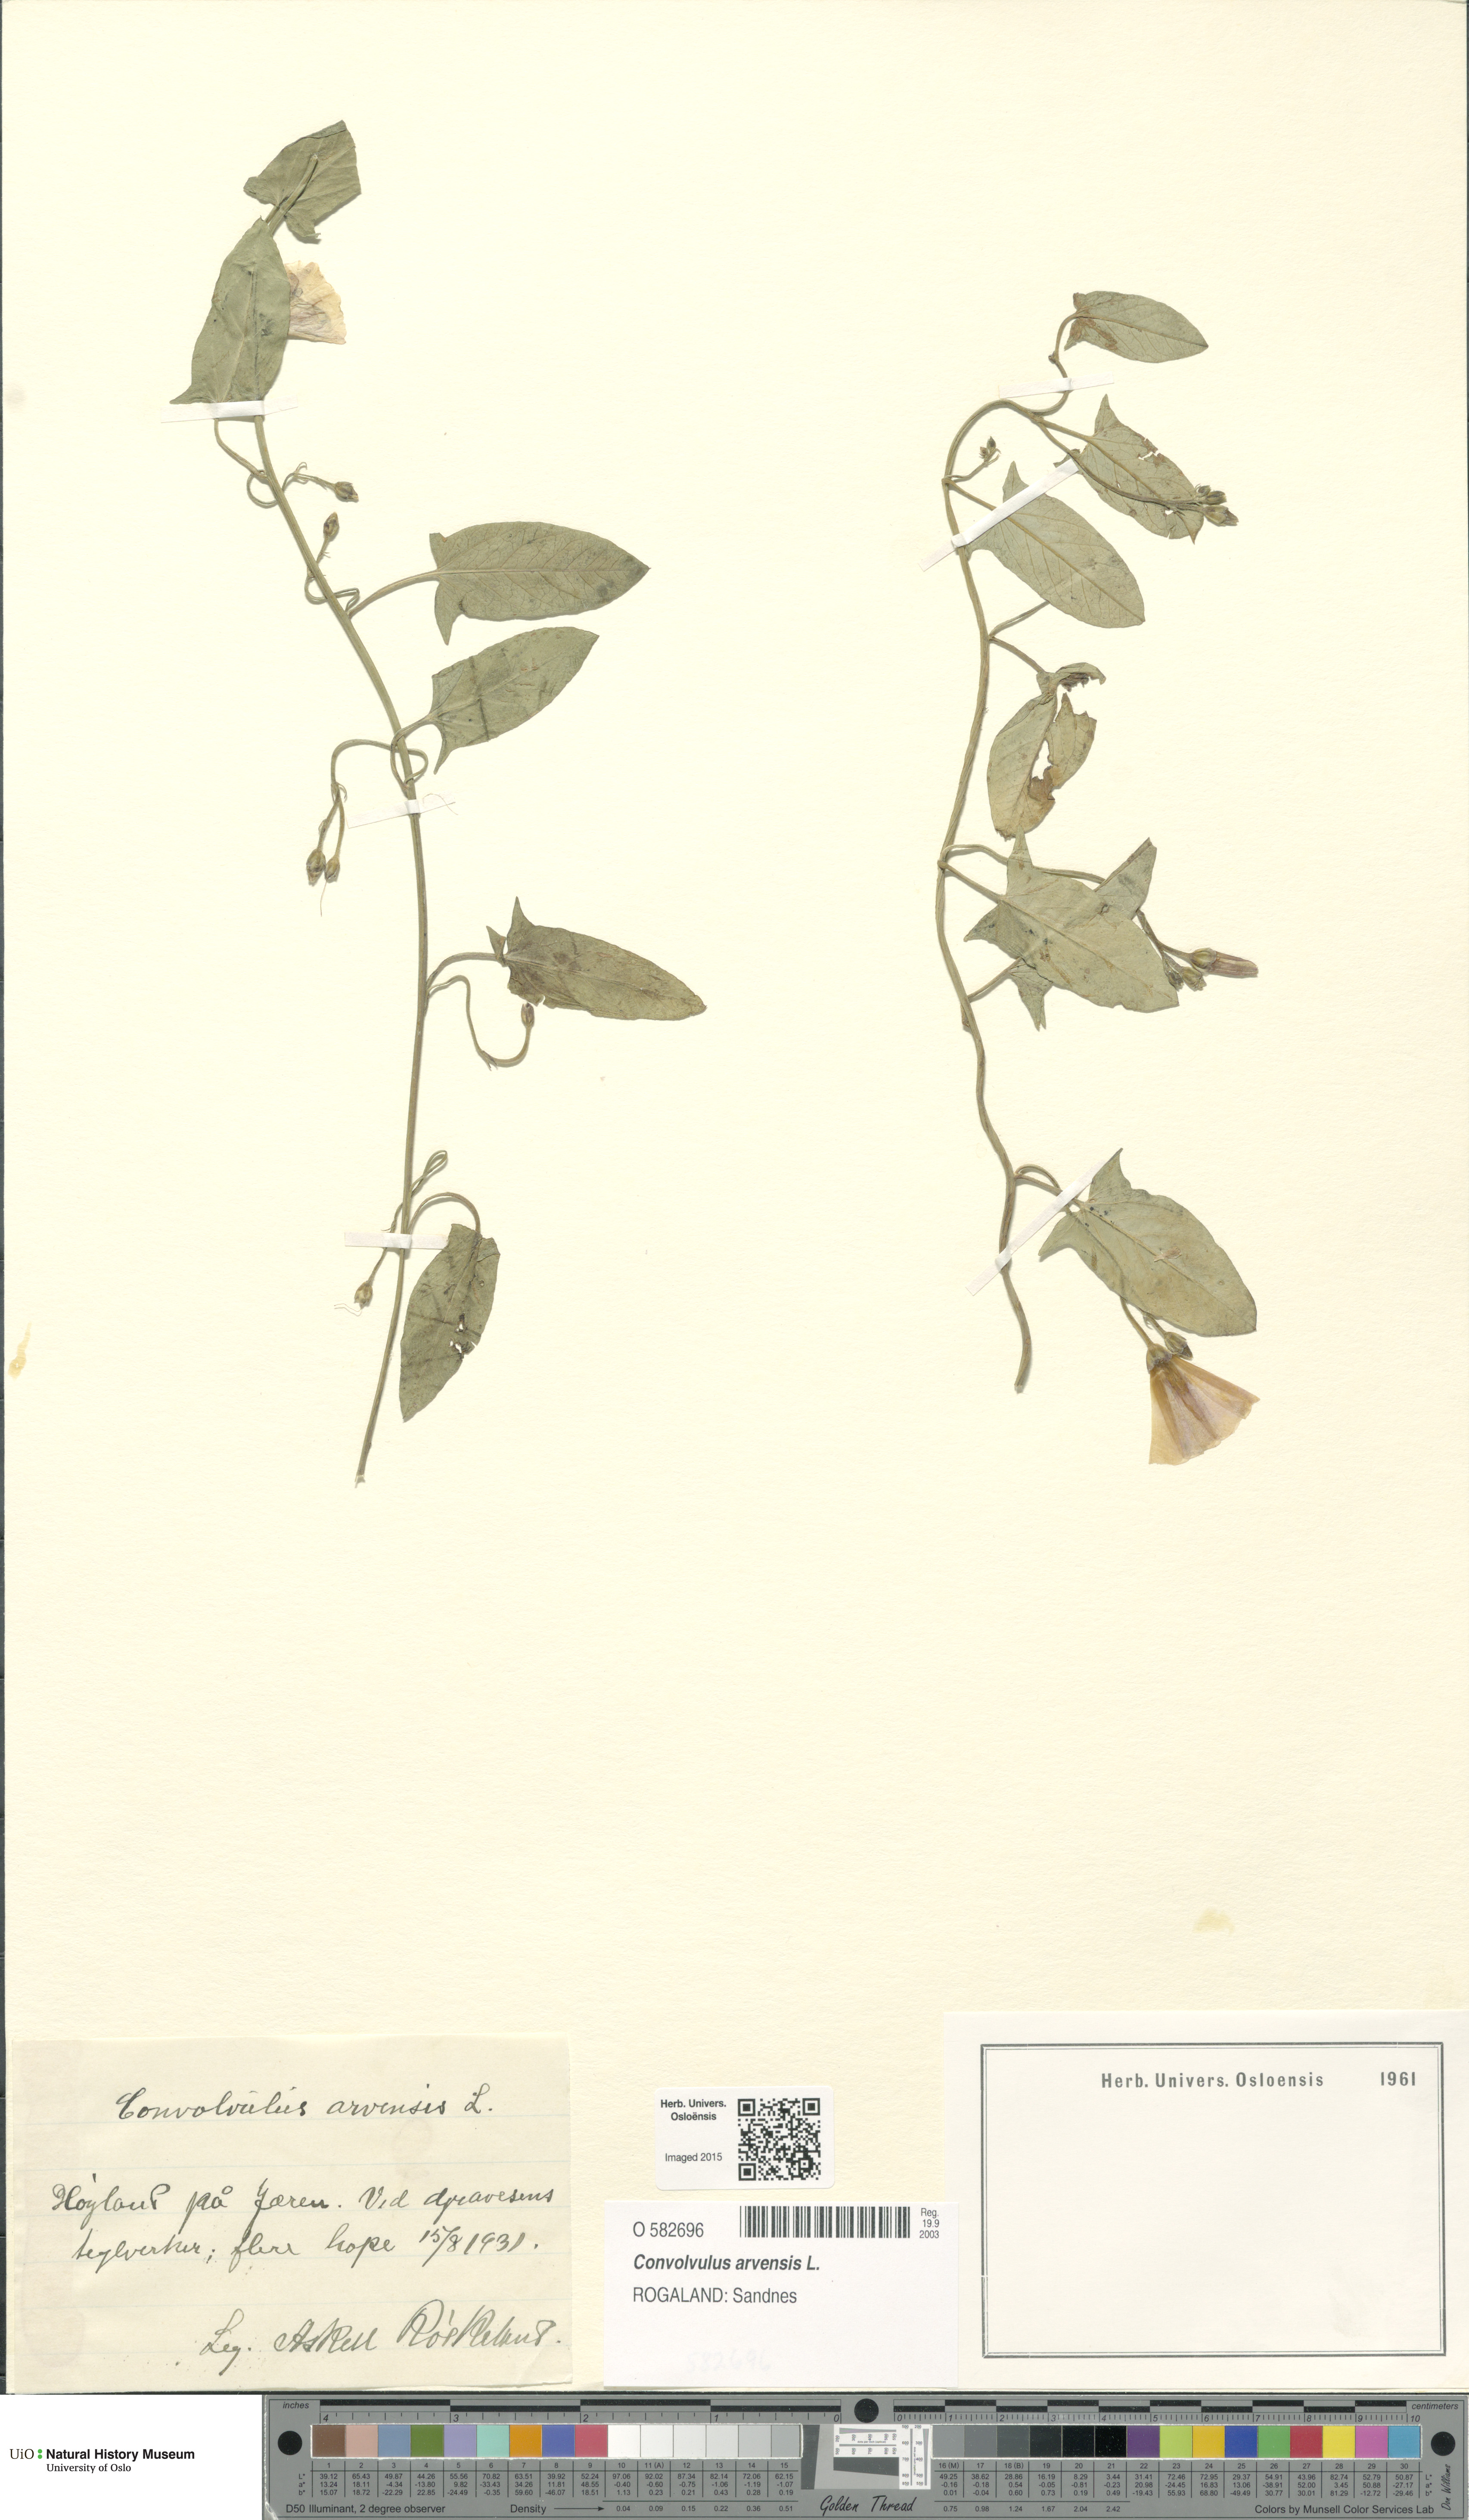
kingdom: Plantae
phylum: Tracheophyta
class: Magnoliopsida
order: Solanales
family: Convolvulaceae
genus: Convolvulus
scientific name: Convolvulus arvensis
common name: Field bindweed
